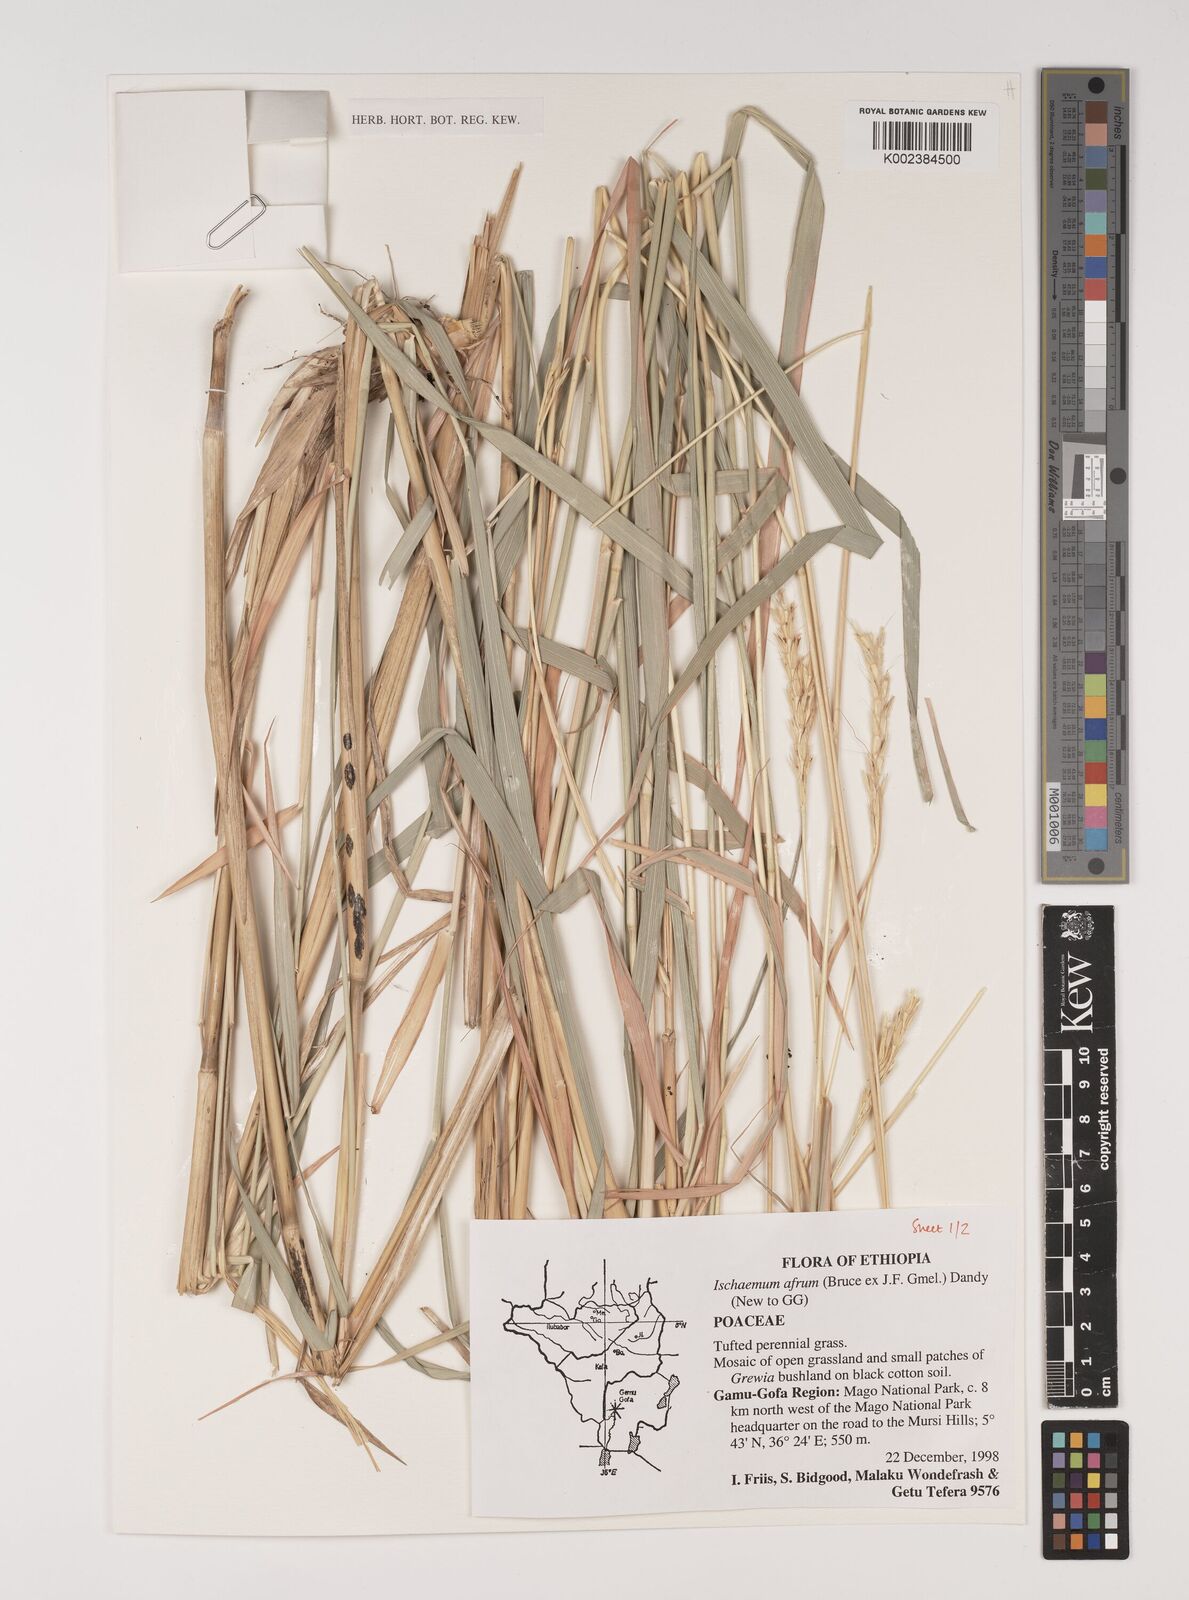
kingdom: Plantae
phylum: Tracheophyta
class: Liliopsida
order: Poales
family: Poaceae
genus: Ischaemum
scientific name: Ischaemum afrum
